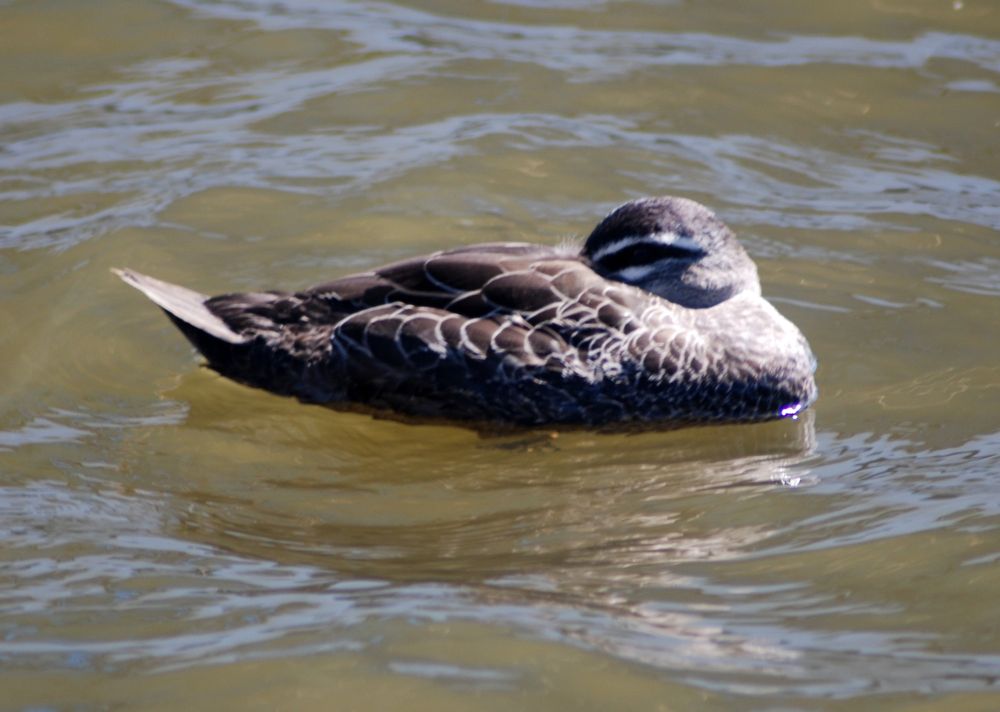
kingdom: Animalia
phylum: Chordata
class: Aves
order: Anseriformes
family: Anatidae
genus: Anas
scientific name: Anas superciliosa
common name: Pacific black duck
